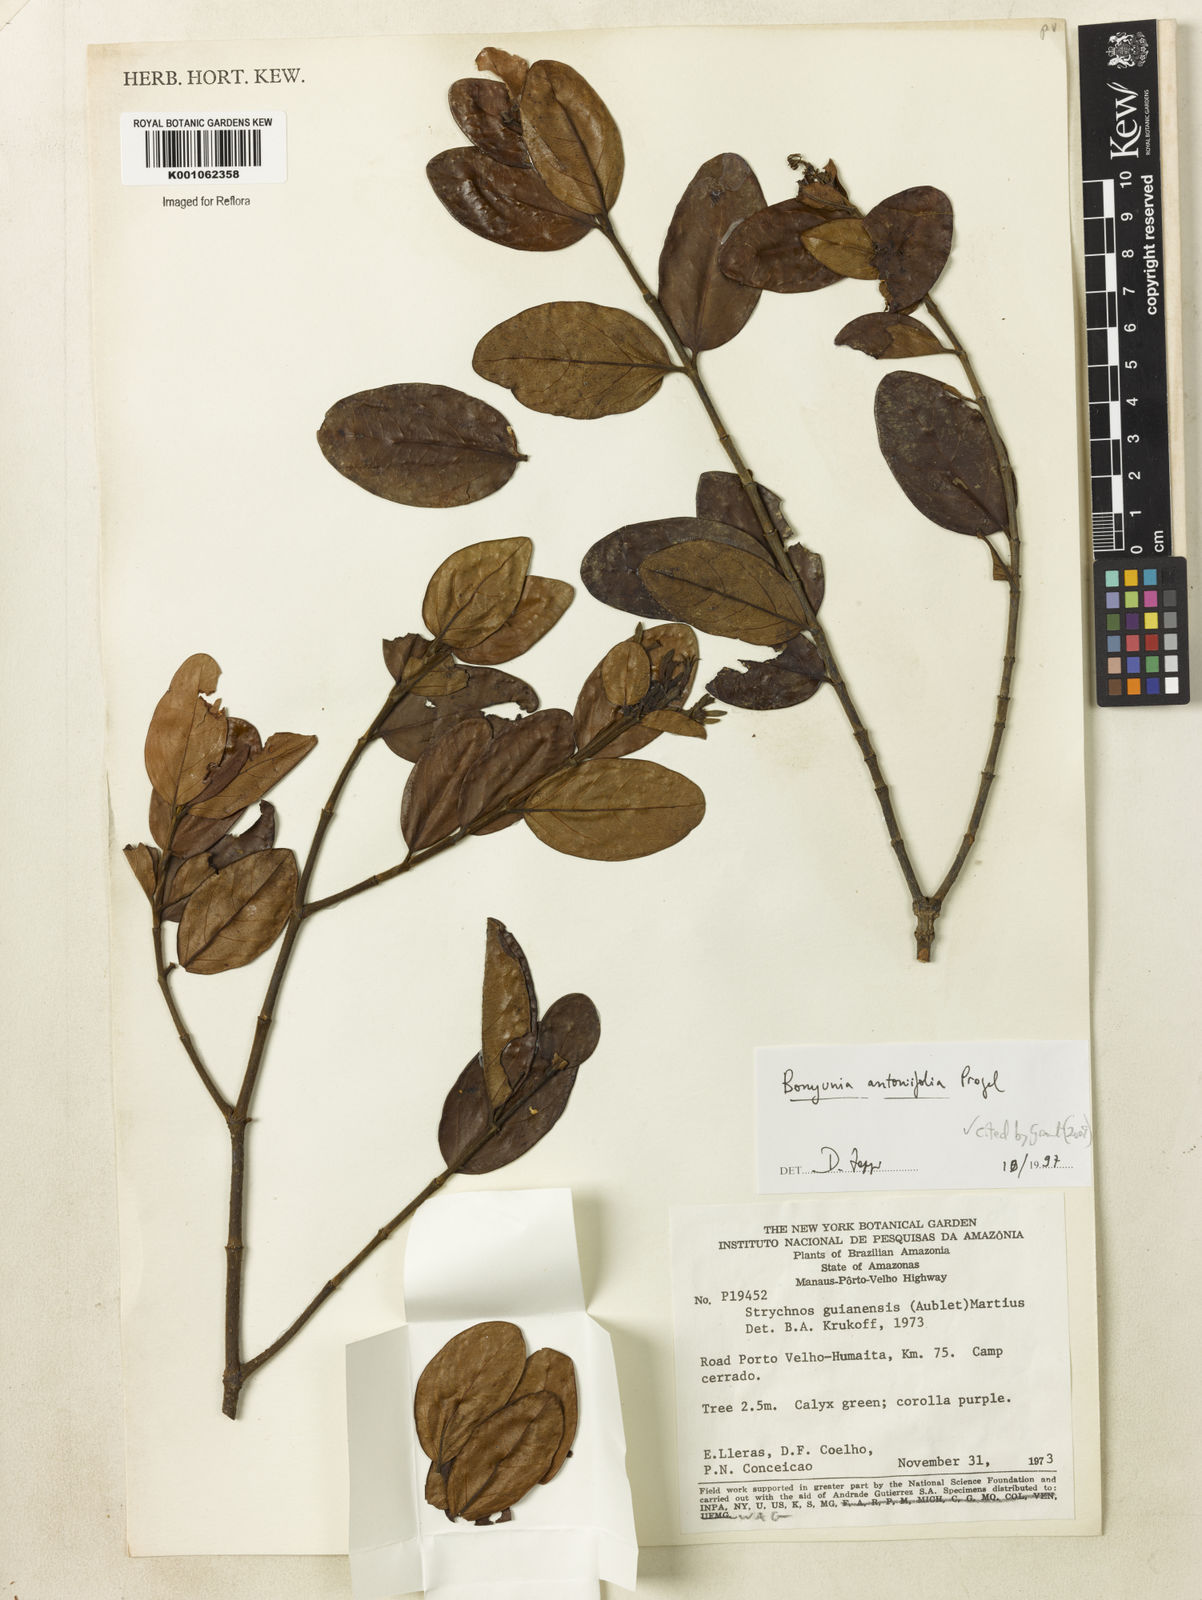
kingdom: Plantae
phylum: Tracheophyta
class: Magnoliopsida
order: Gentianales
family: Loganiaceae
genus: Bonyunia
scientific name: Bonyunia antoniifolia
